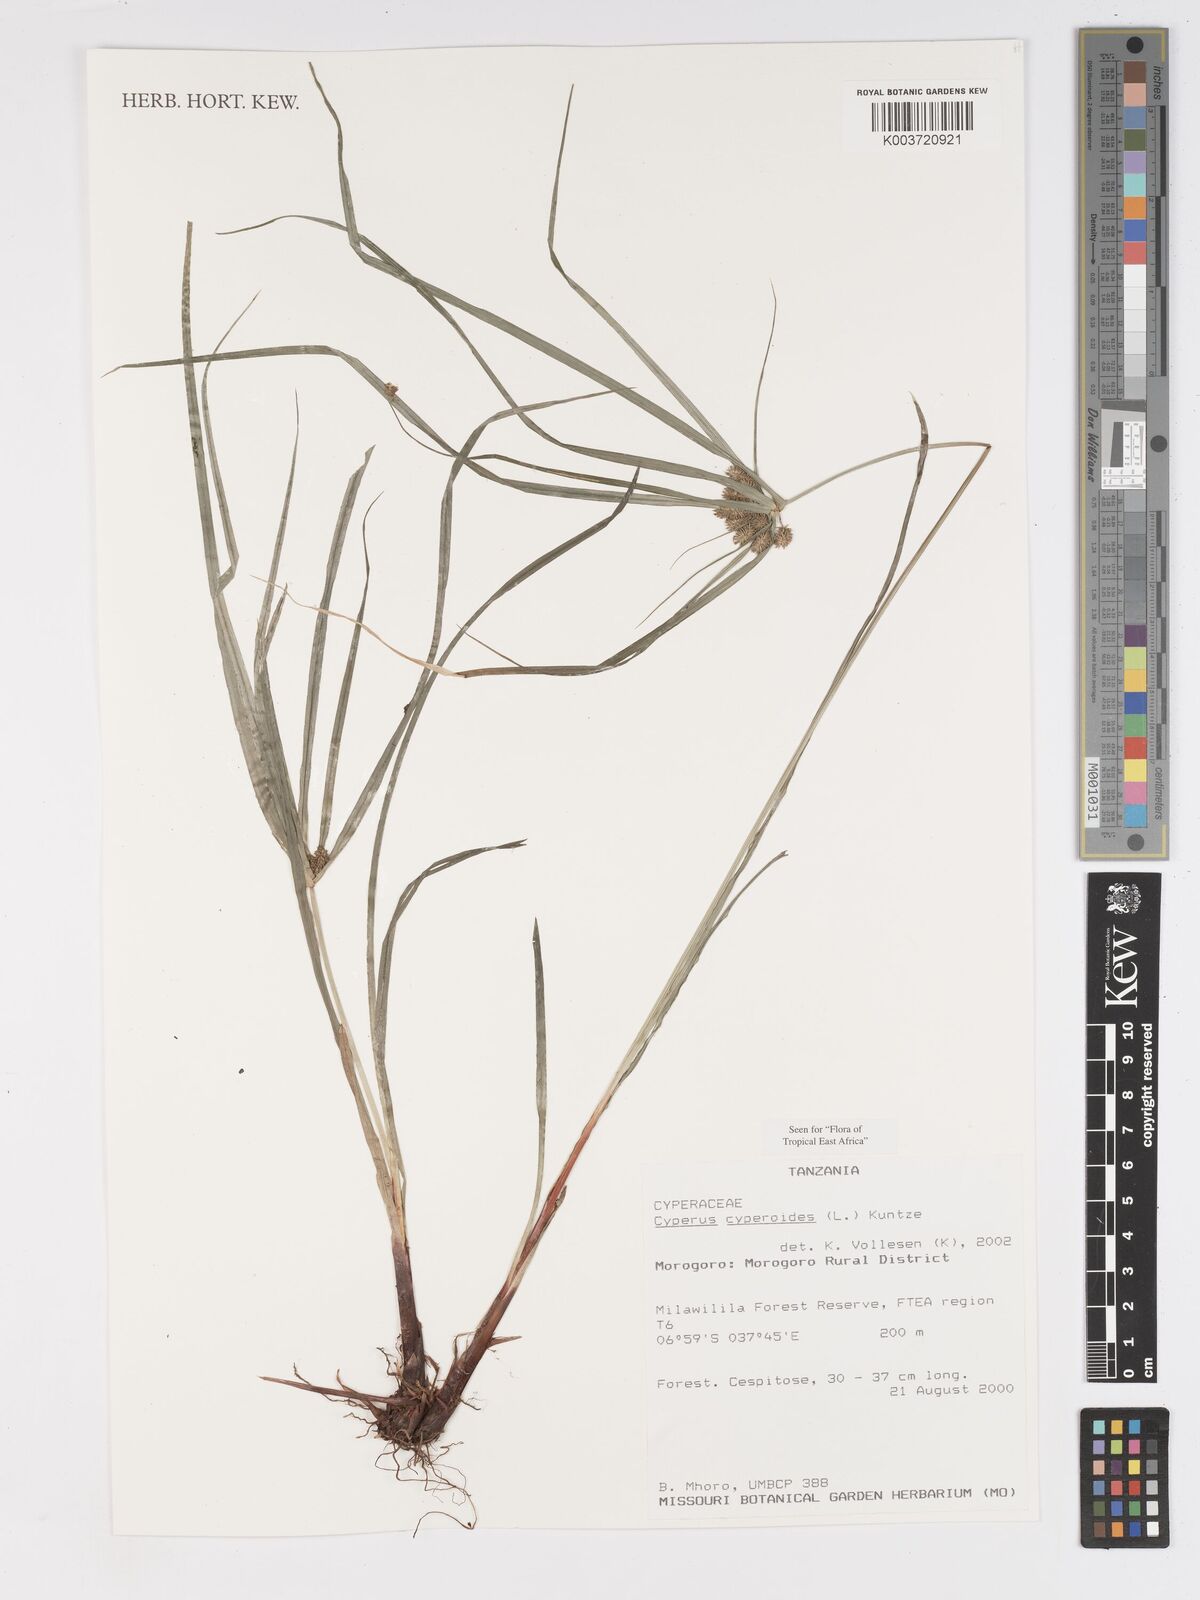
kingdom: Plantae
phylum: Tracheophyta
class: Liliopsida
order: Poales
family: Cyperaceae
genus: Cyperus
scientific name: Cyperus cyperoides
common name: Pacific island flat sedge
